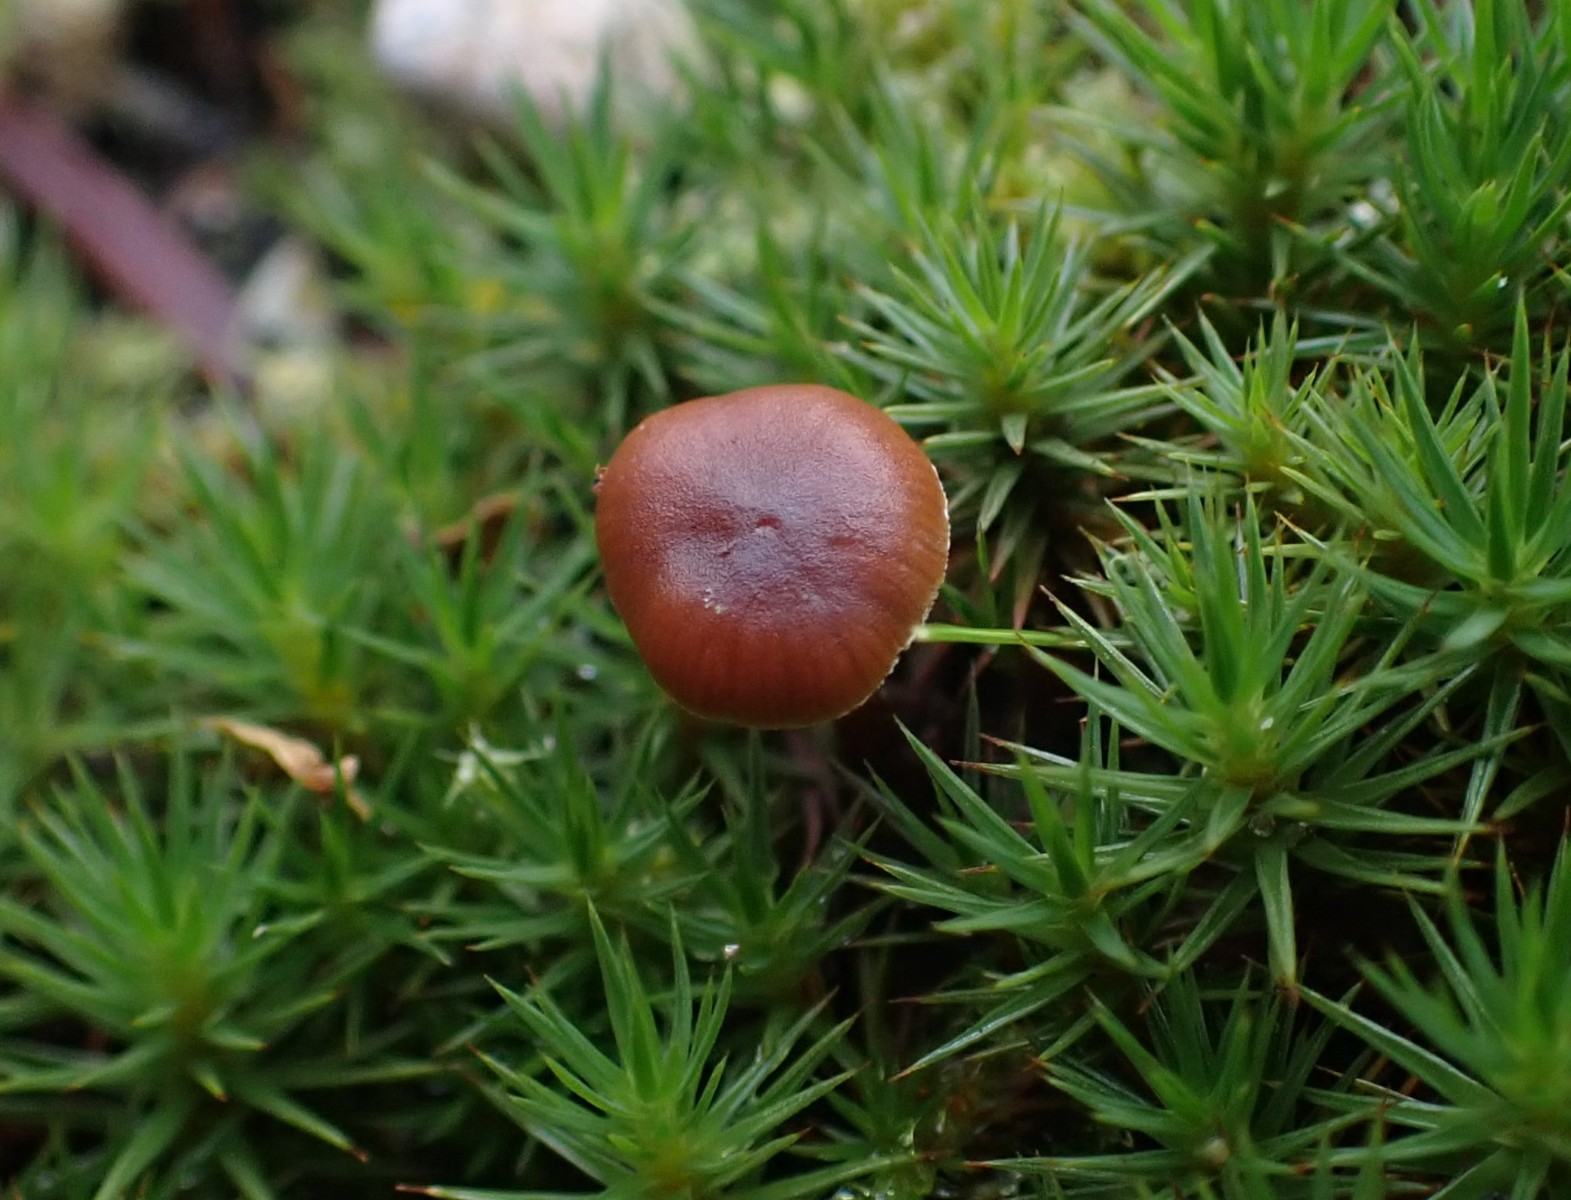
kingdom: Fungi
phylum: Basidiomycota
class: Agaricomycetes
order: Agaricales
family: Strophariaceae
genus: Deconica
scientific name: Deconica montana
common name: rødbrun stråhat
